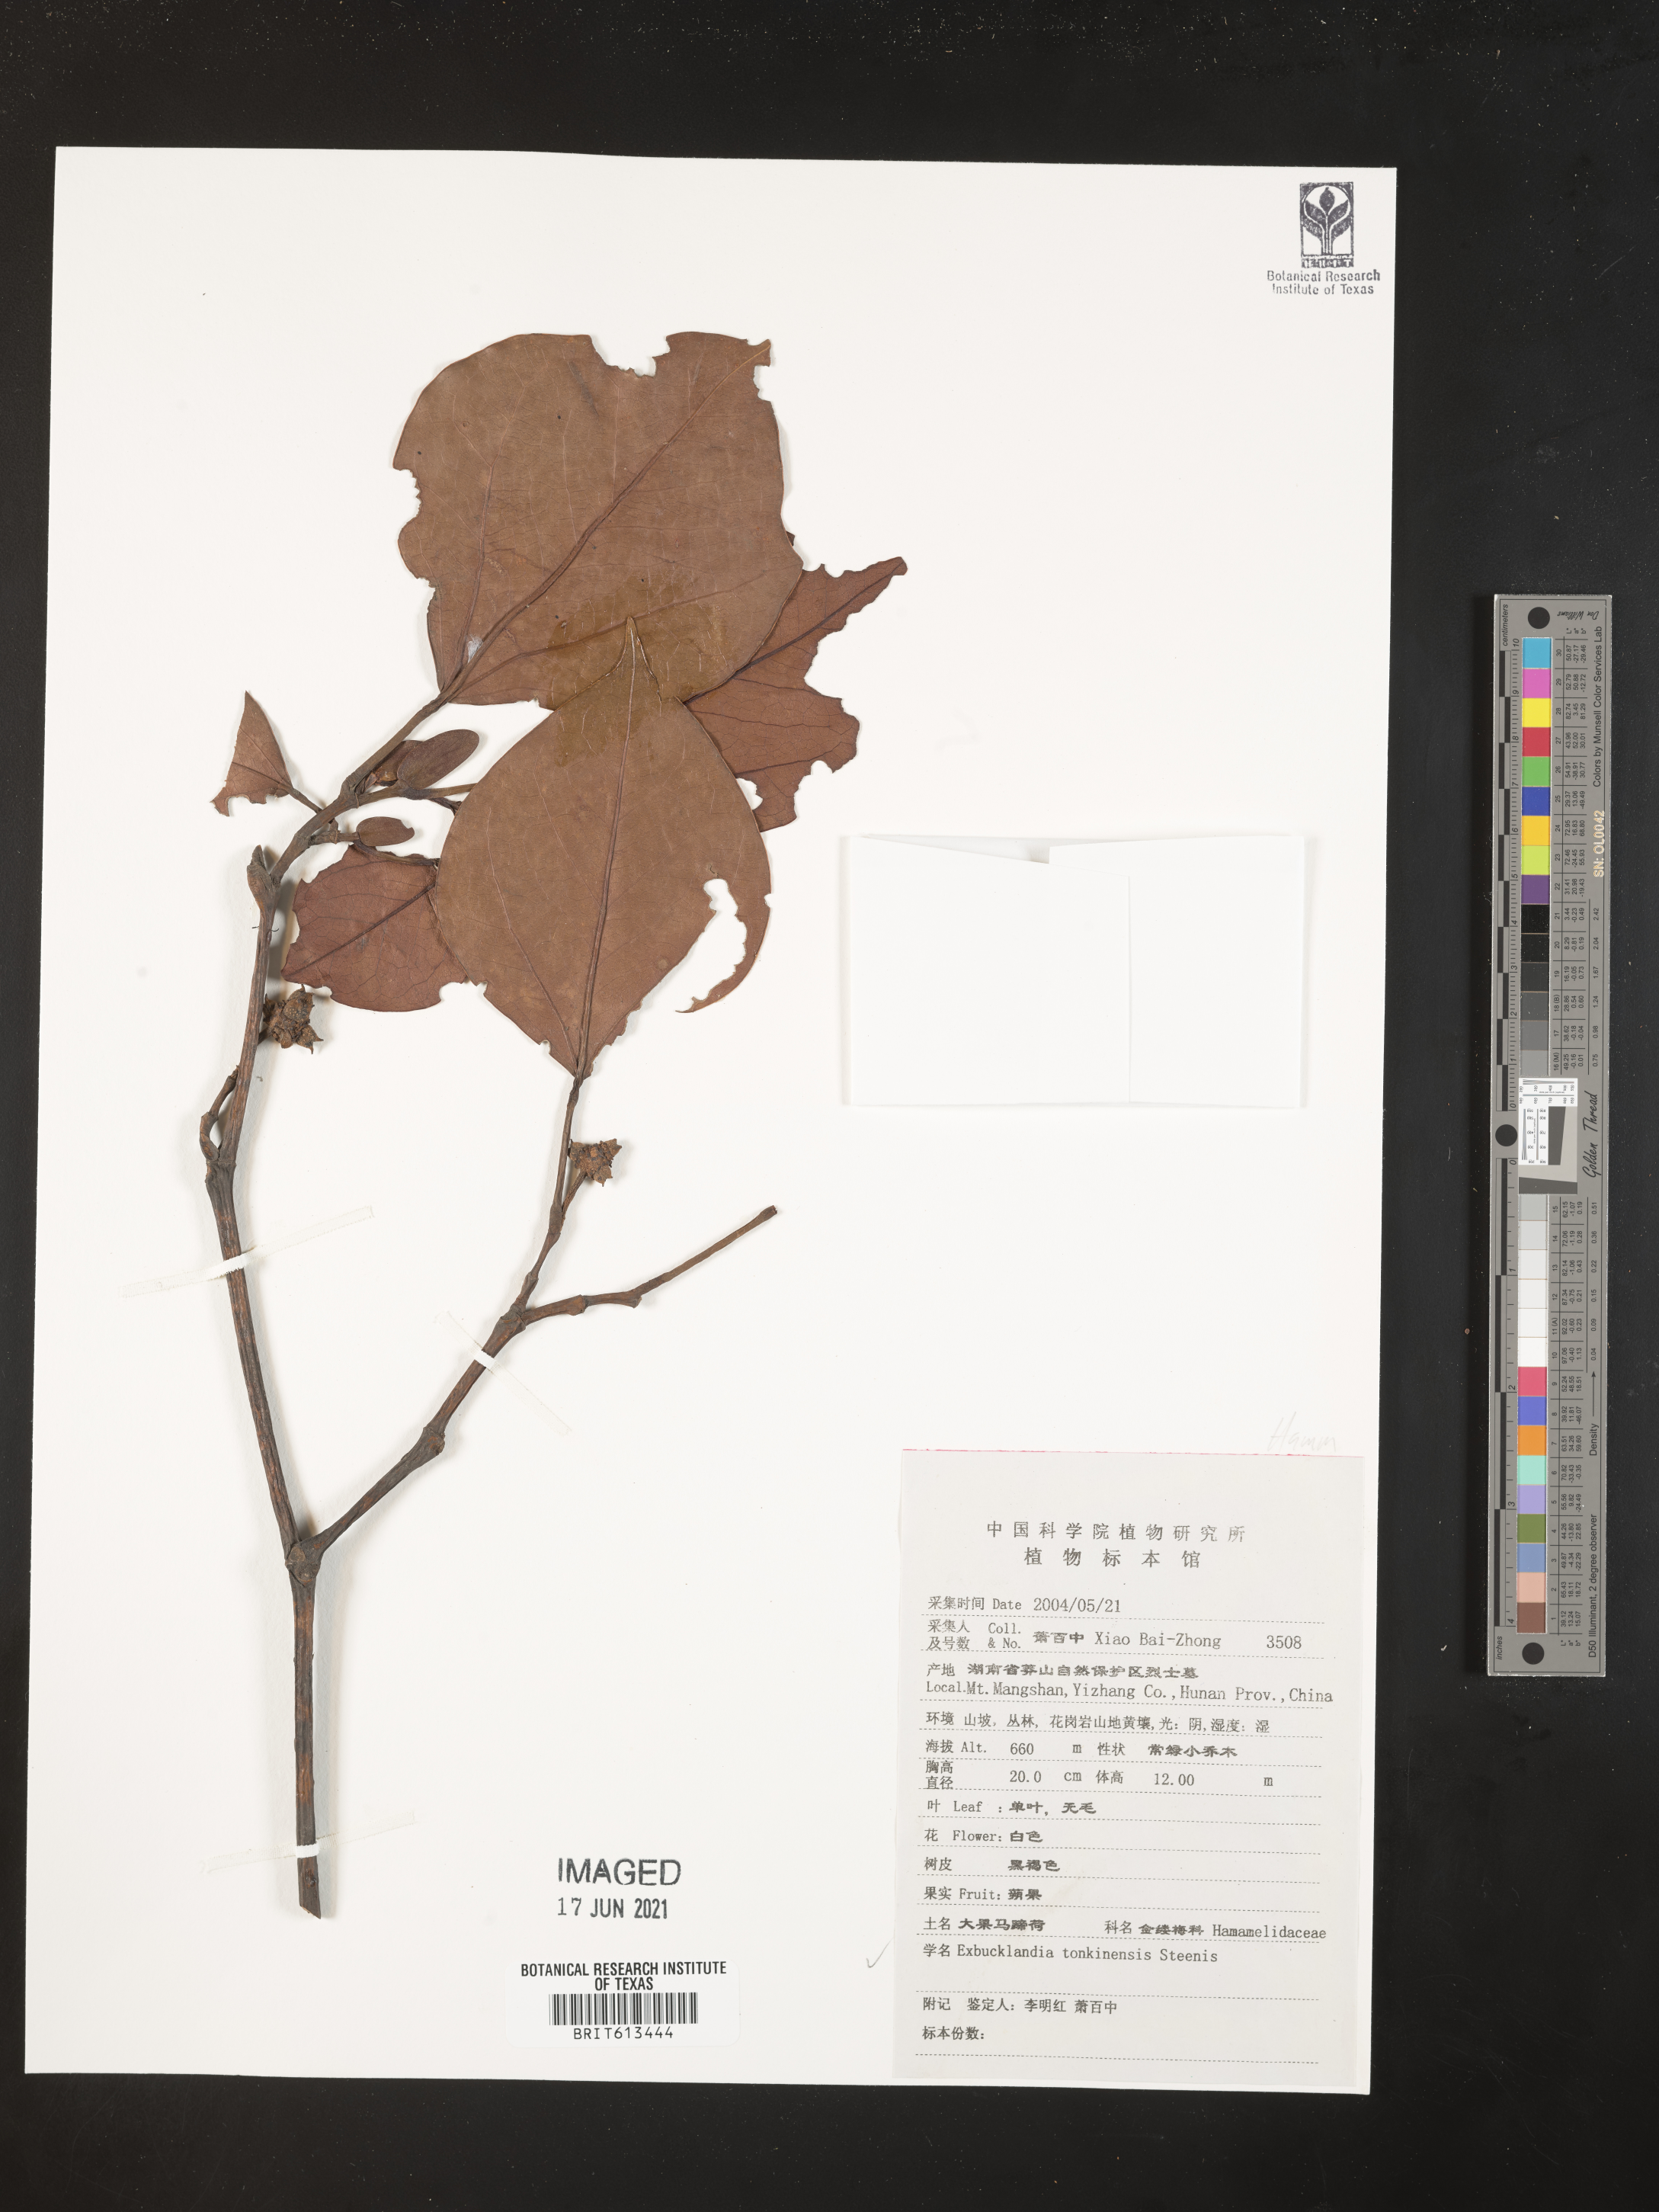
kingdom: Plantae
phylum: Tracheophyta
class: Magnoliopsida
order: Saxifragales
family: Hamamelidaceae
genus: Exbucklandia
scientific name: Exbucklandia tonkinensis
